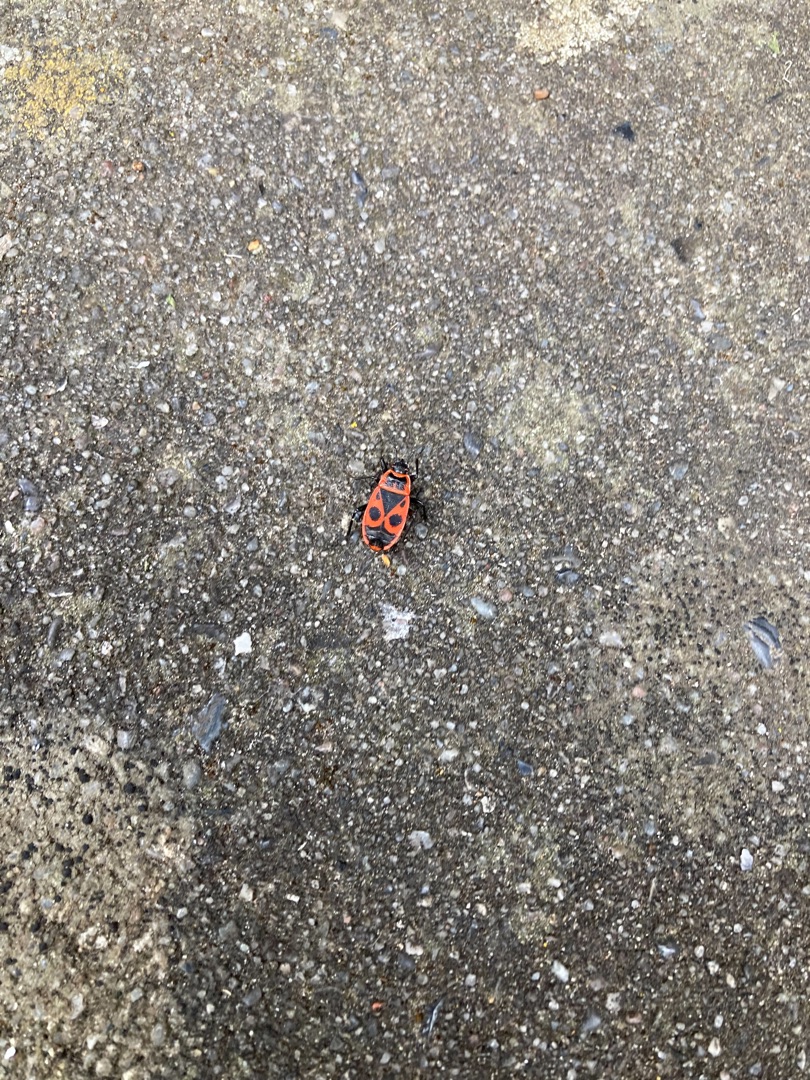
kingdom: Animalia
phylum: Arthropoda
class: Insecta
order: Hemiptera
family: Pyrrhocoridae
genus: Pyrrhocoris
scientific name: Pyrrhocoris apterus
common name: Ildtæge
